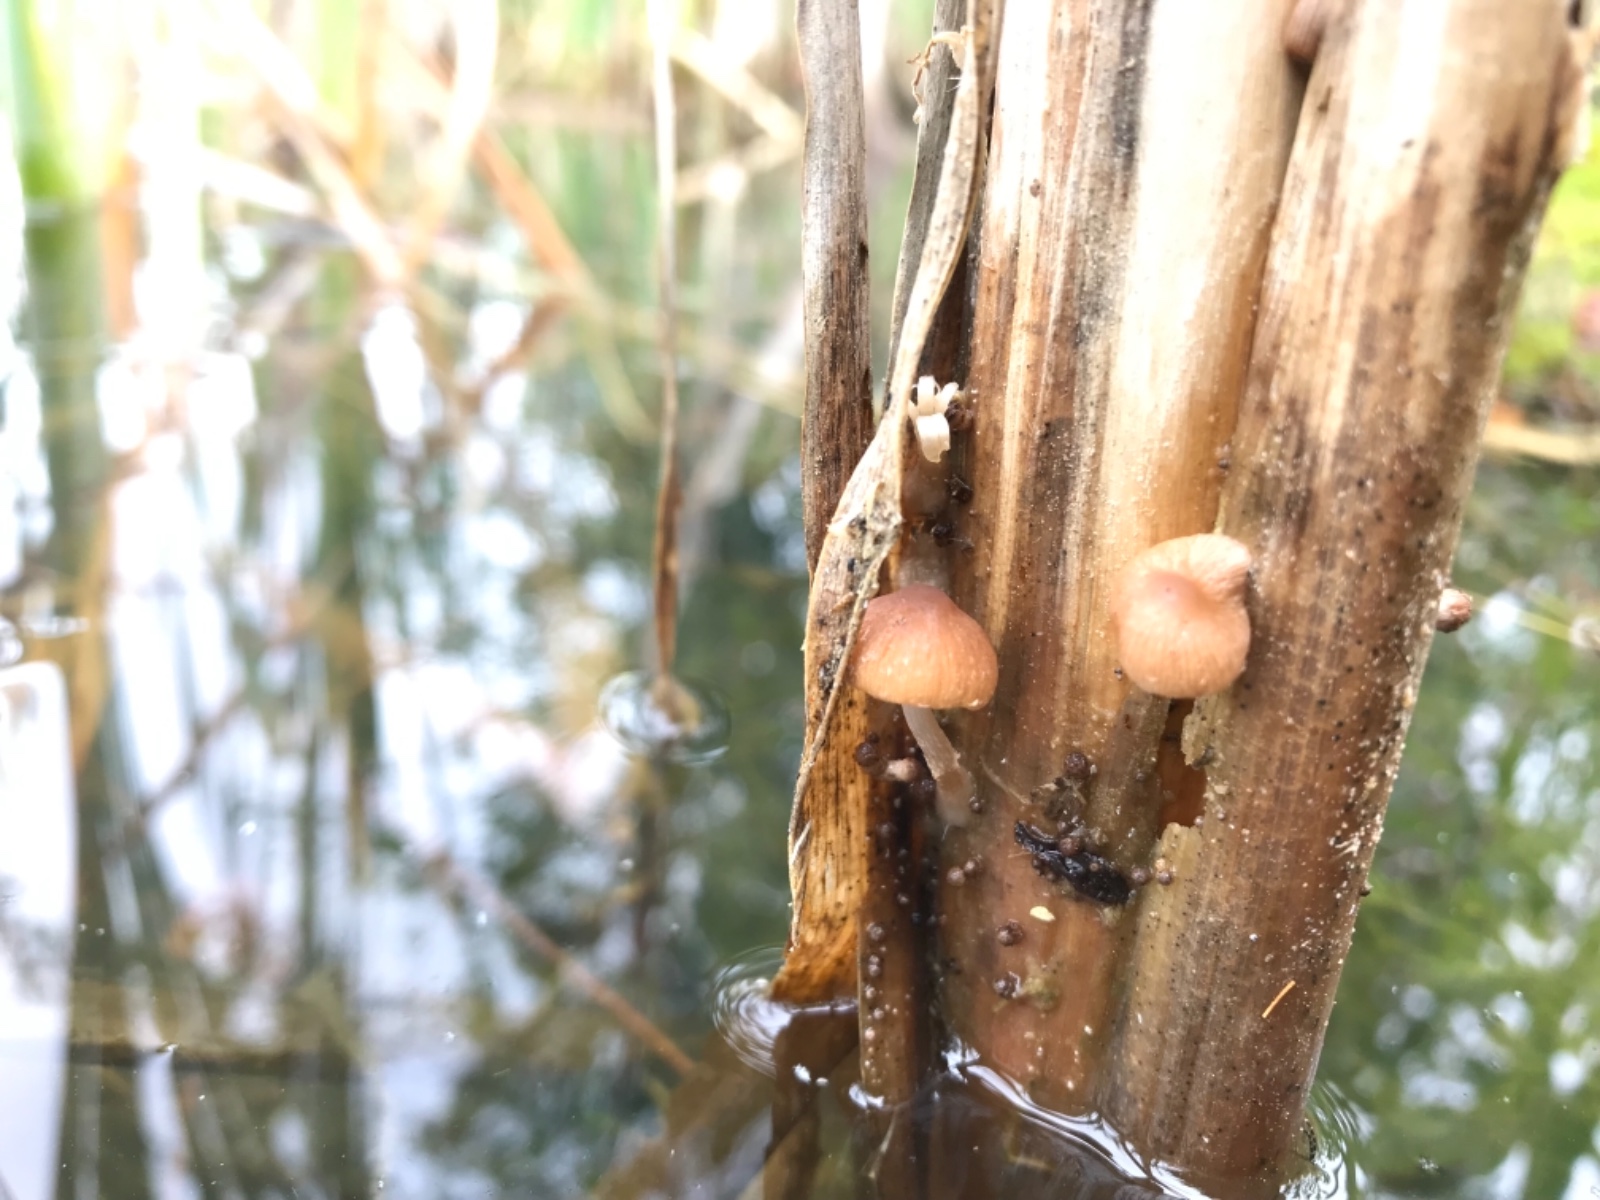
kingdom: Fungi
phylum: Basidiomycota
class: Agaricomycetes
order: Agaricales
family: Psathyrellaceae
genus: Candolleomyces
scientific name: Candolleomyces typhae
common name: dunhammer-mørkhat
